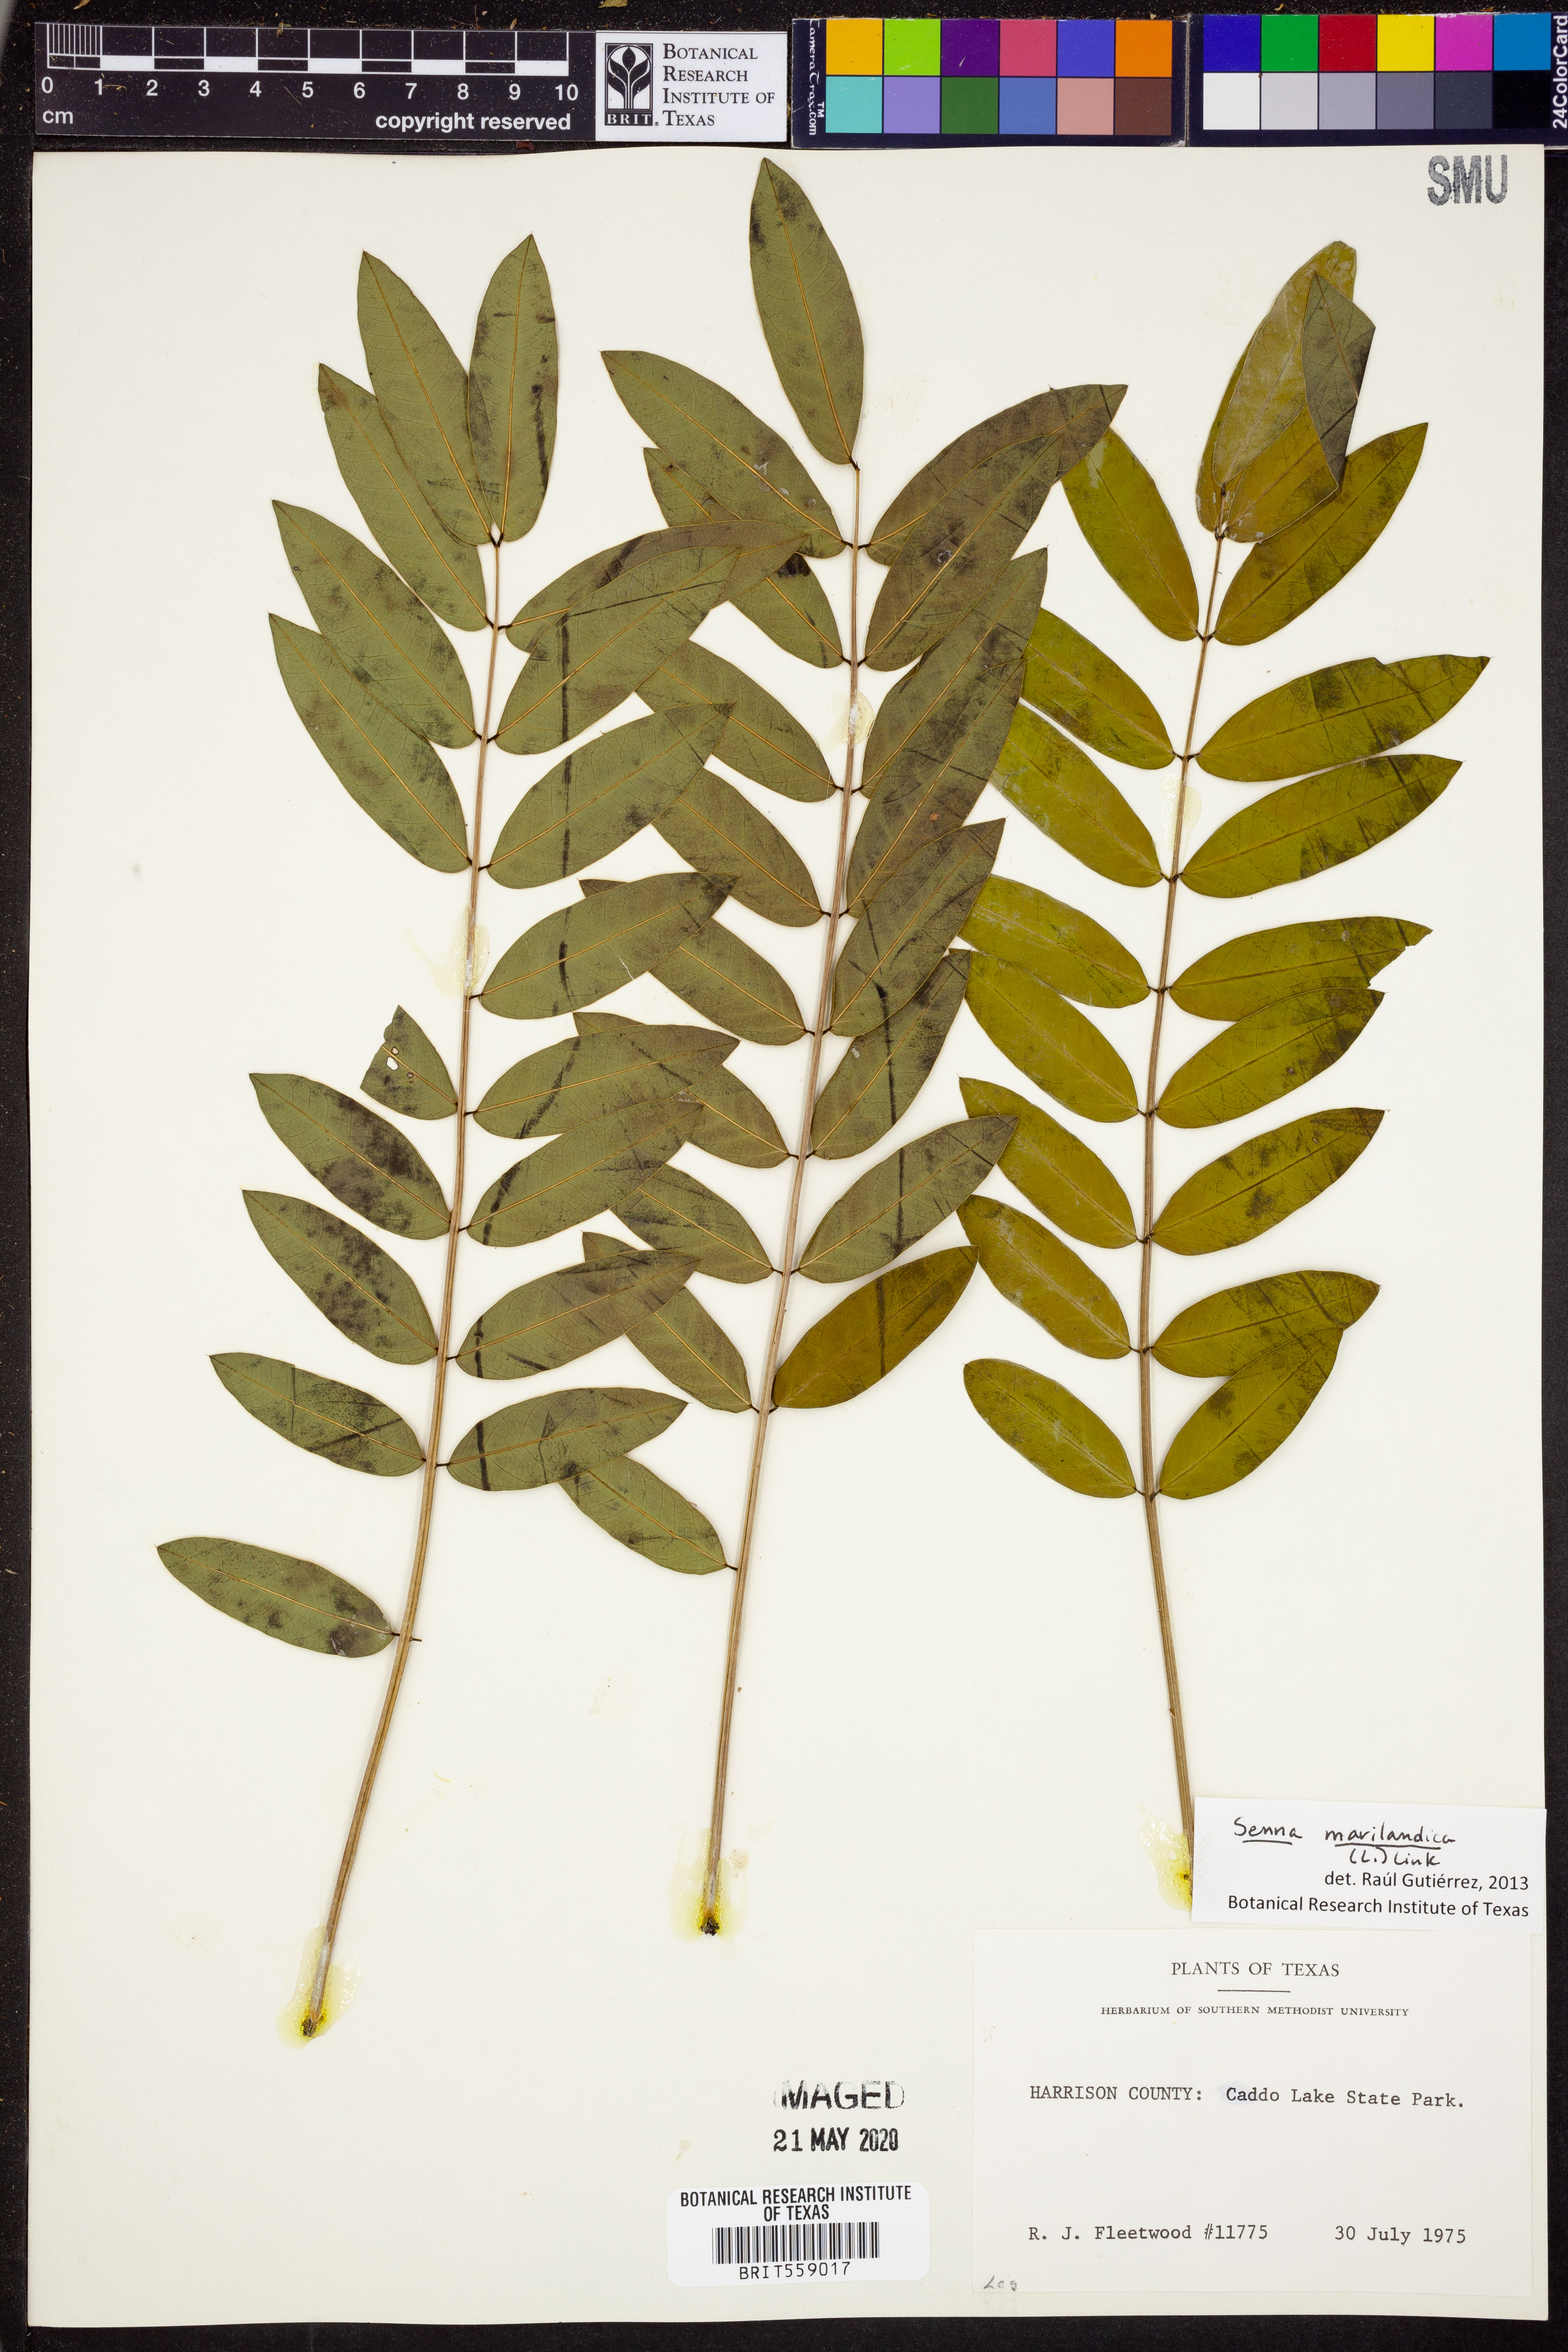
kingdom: Plantae
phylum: Tracheophyta
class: Magnoliopsida
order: Fabales
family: Fabaceae
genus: Senna
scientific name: Senna marilandica
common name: American senna
